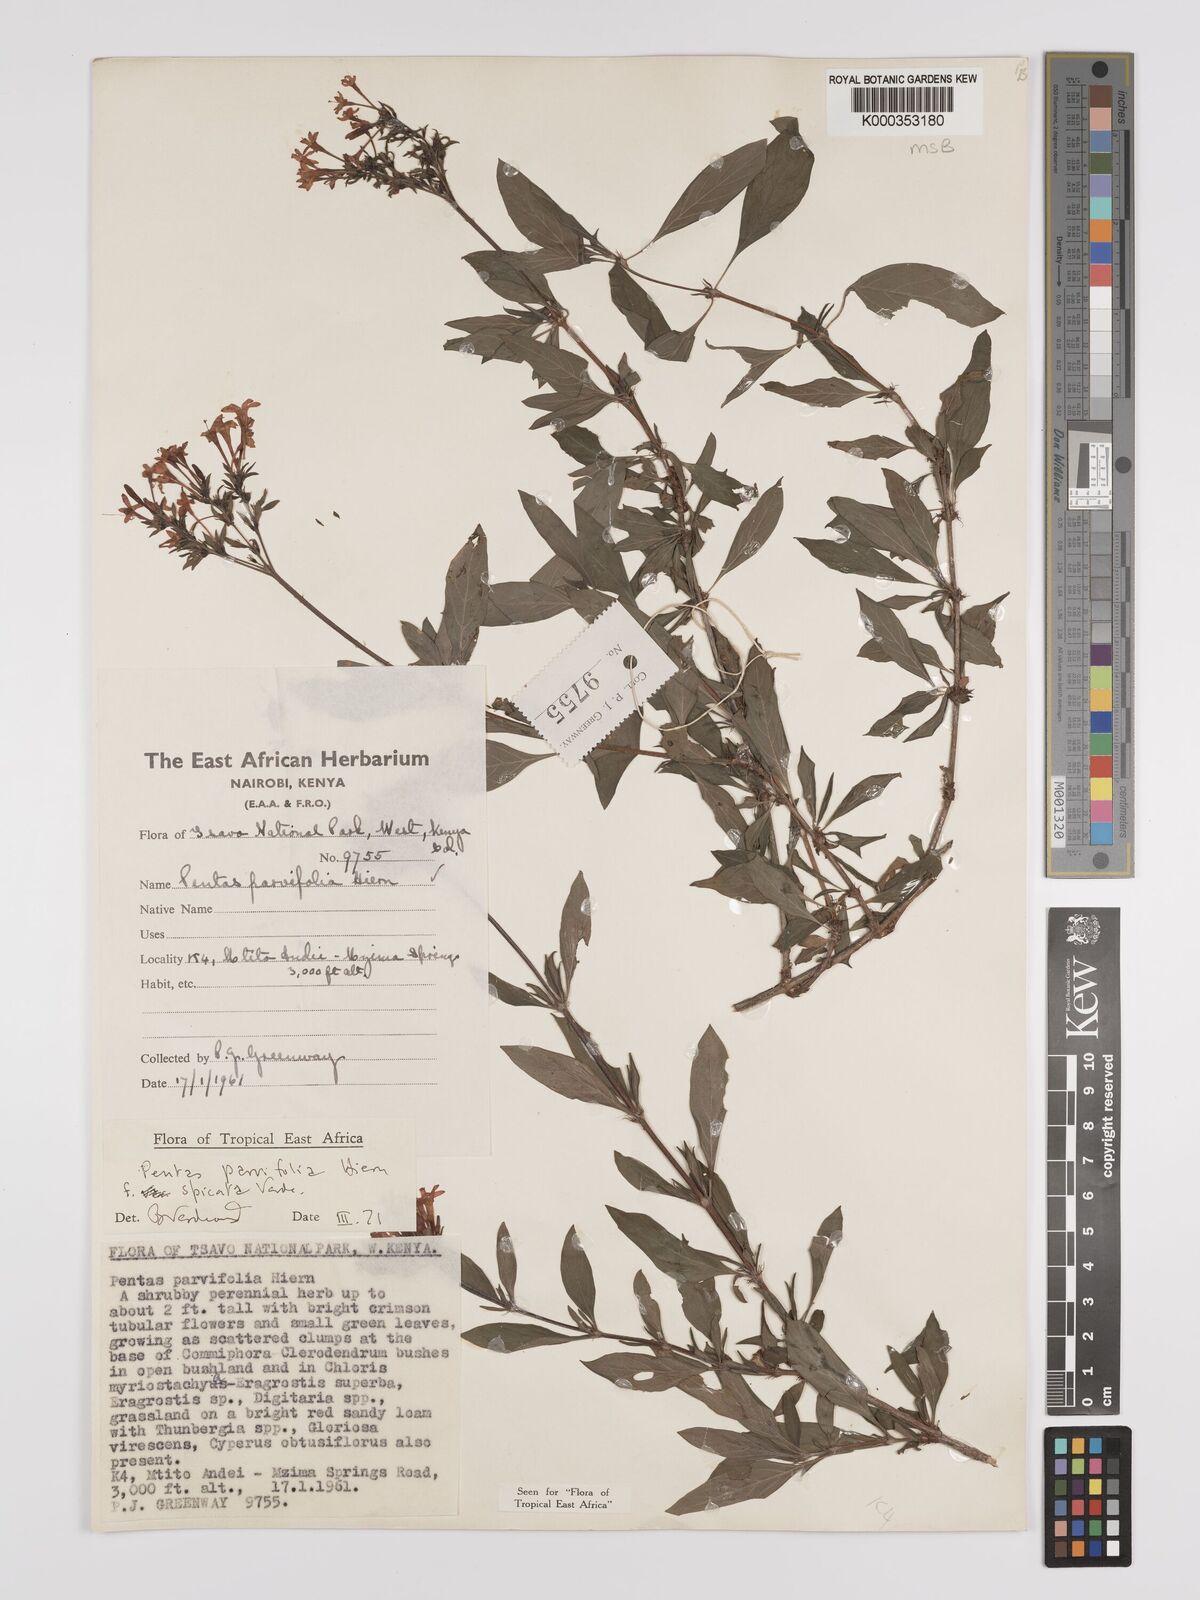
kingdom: Plantae
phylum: Tracheophyta
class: Magnoliopsida
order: Gentianales
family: Rubiaceae
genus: Rhodopentas
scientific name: Rhodopentas parvifolia
